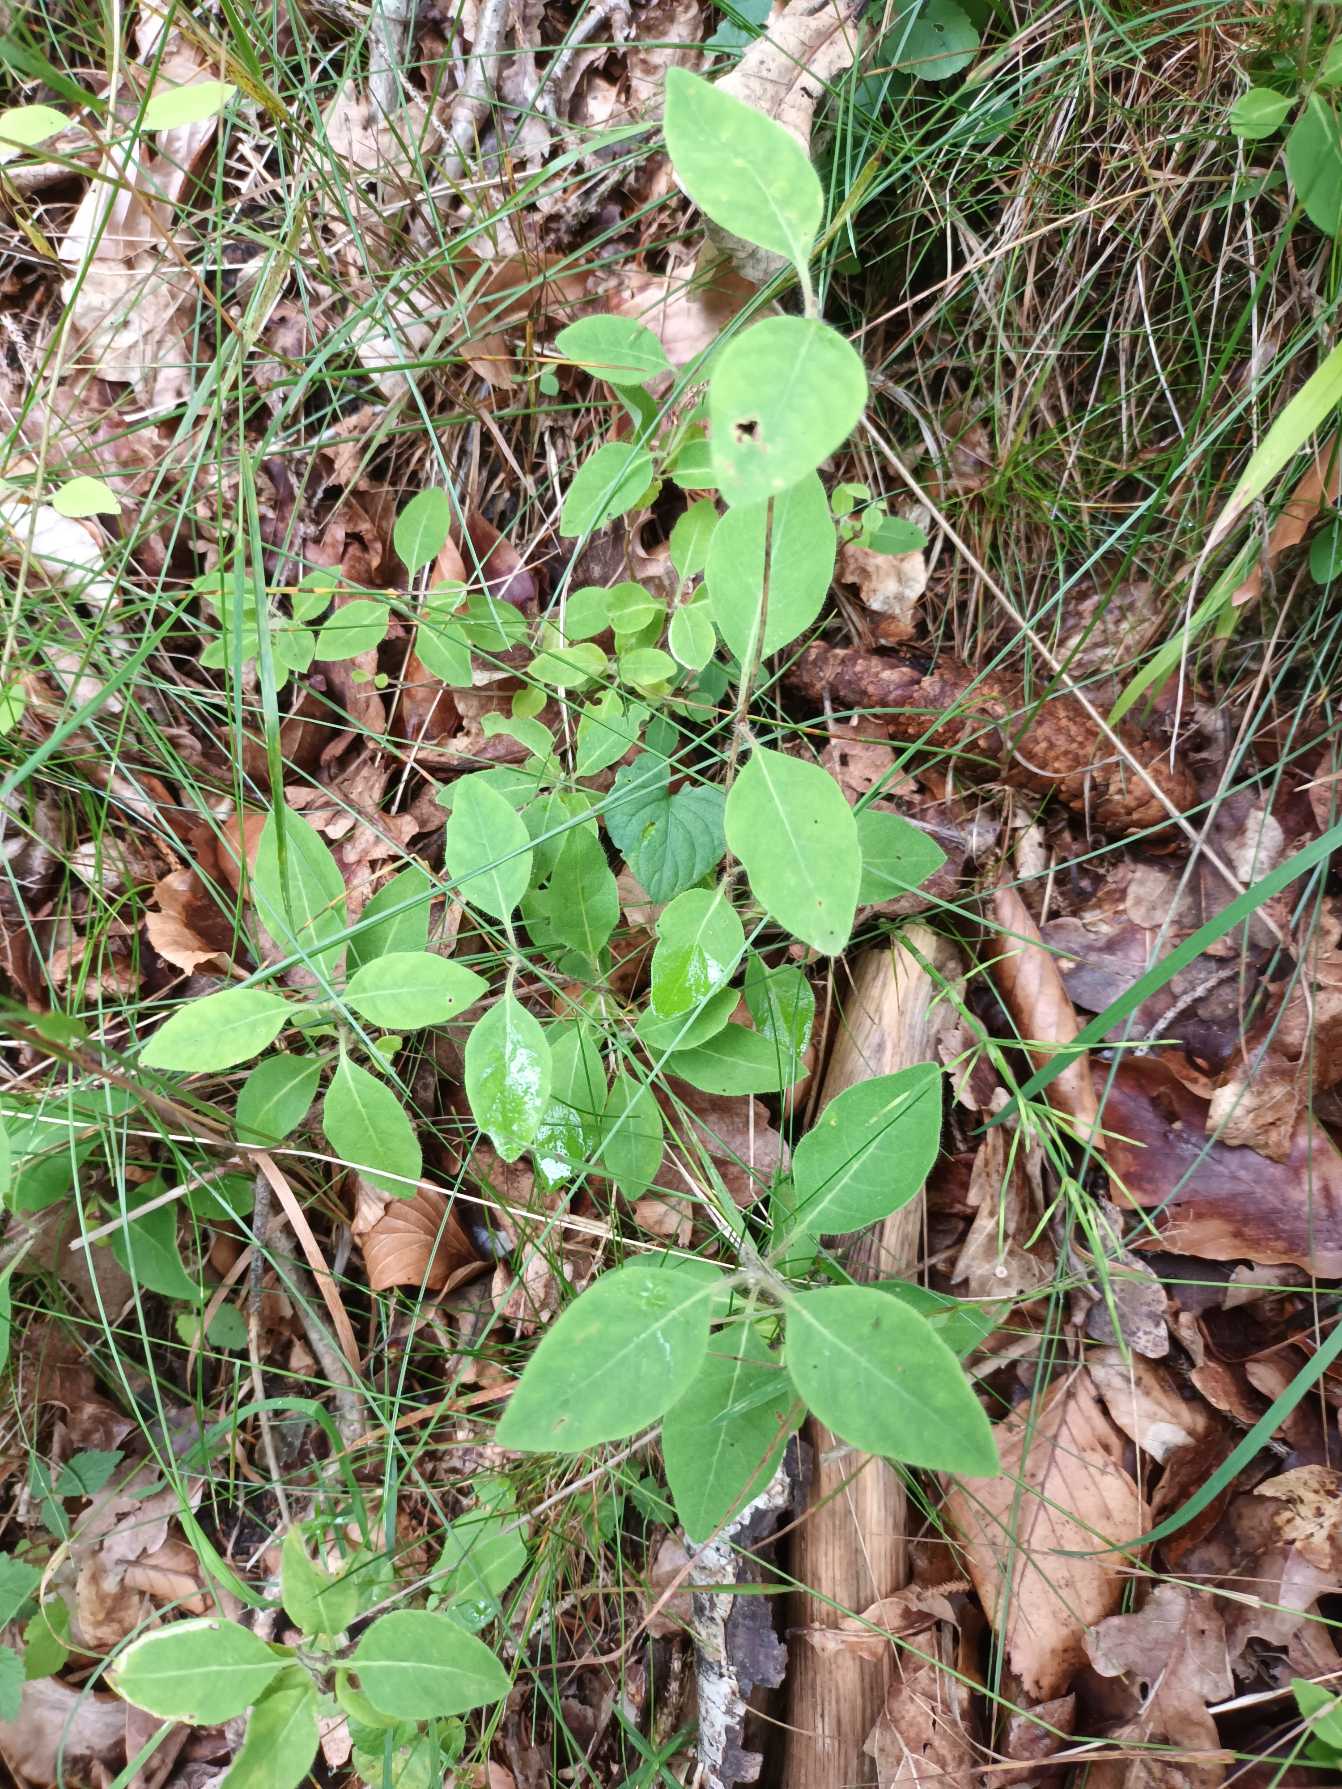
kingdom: Plantae
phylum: Tracheophyta
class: Magnoliopsida
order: Dipsacales
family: Caprifoliaceae
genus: Lonicera
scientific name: Lonicera periclymenum
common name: Almindelig gedeblad
